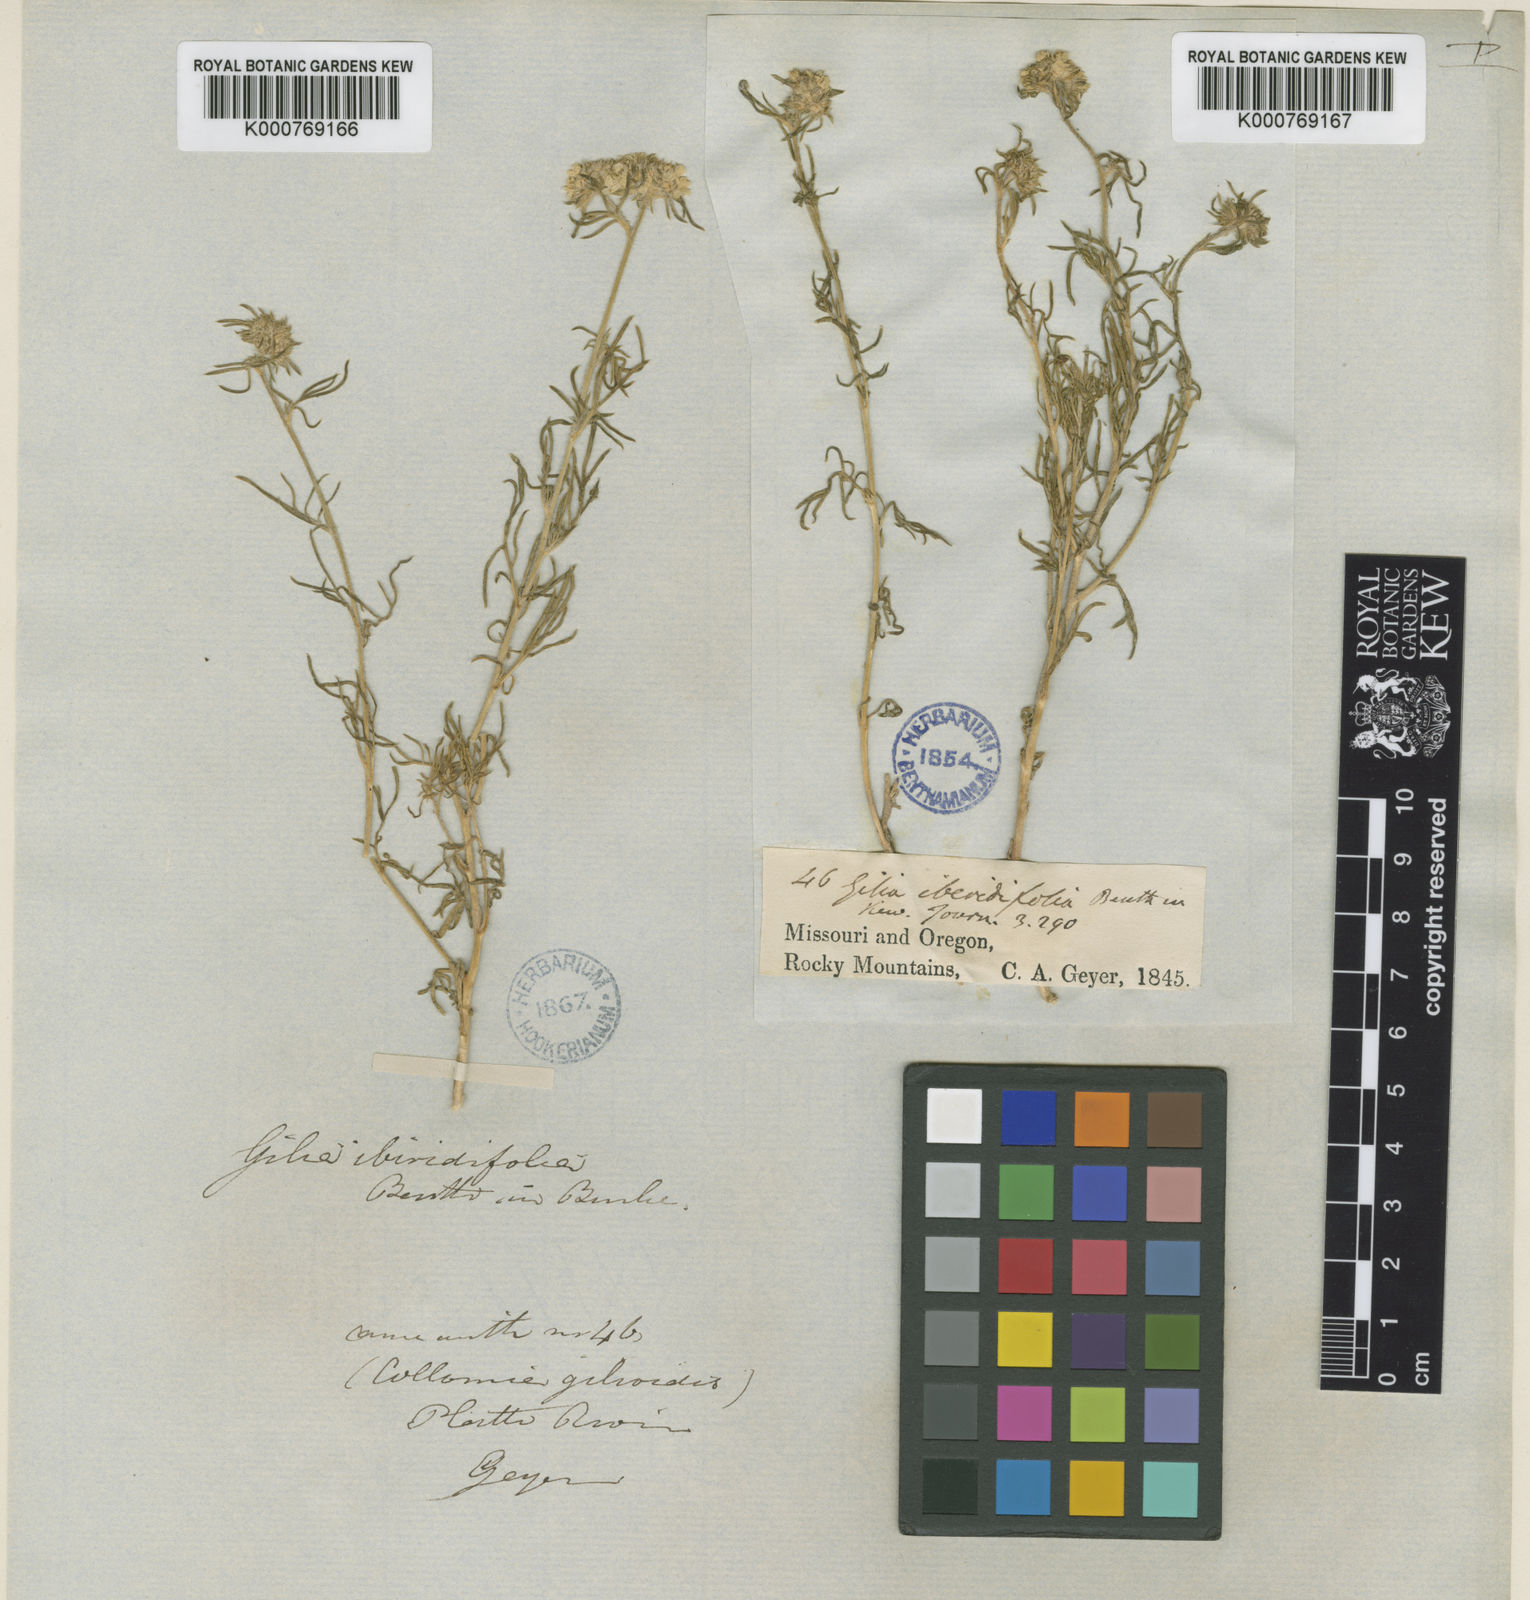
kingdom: Plantae
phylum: Tracheophyta
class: Magnoliopsida
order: Ericales
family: Polemoniaceae
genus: Ipomopsis
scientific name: Ipomopsis congesta
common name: Ball-head gilia
